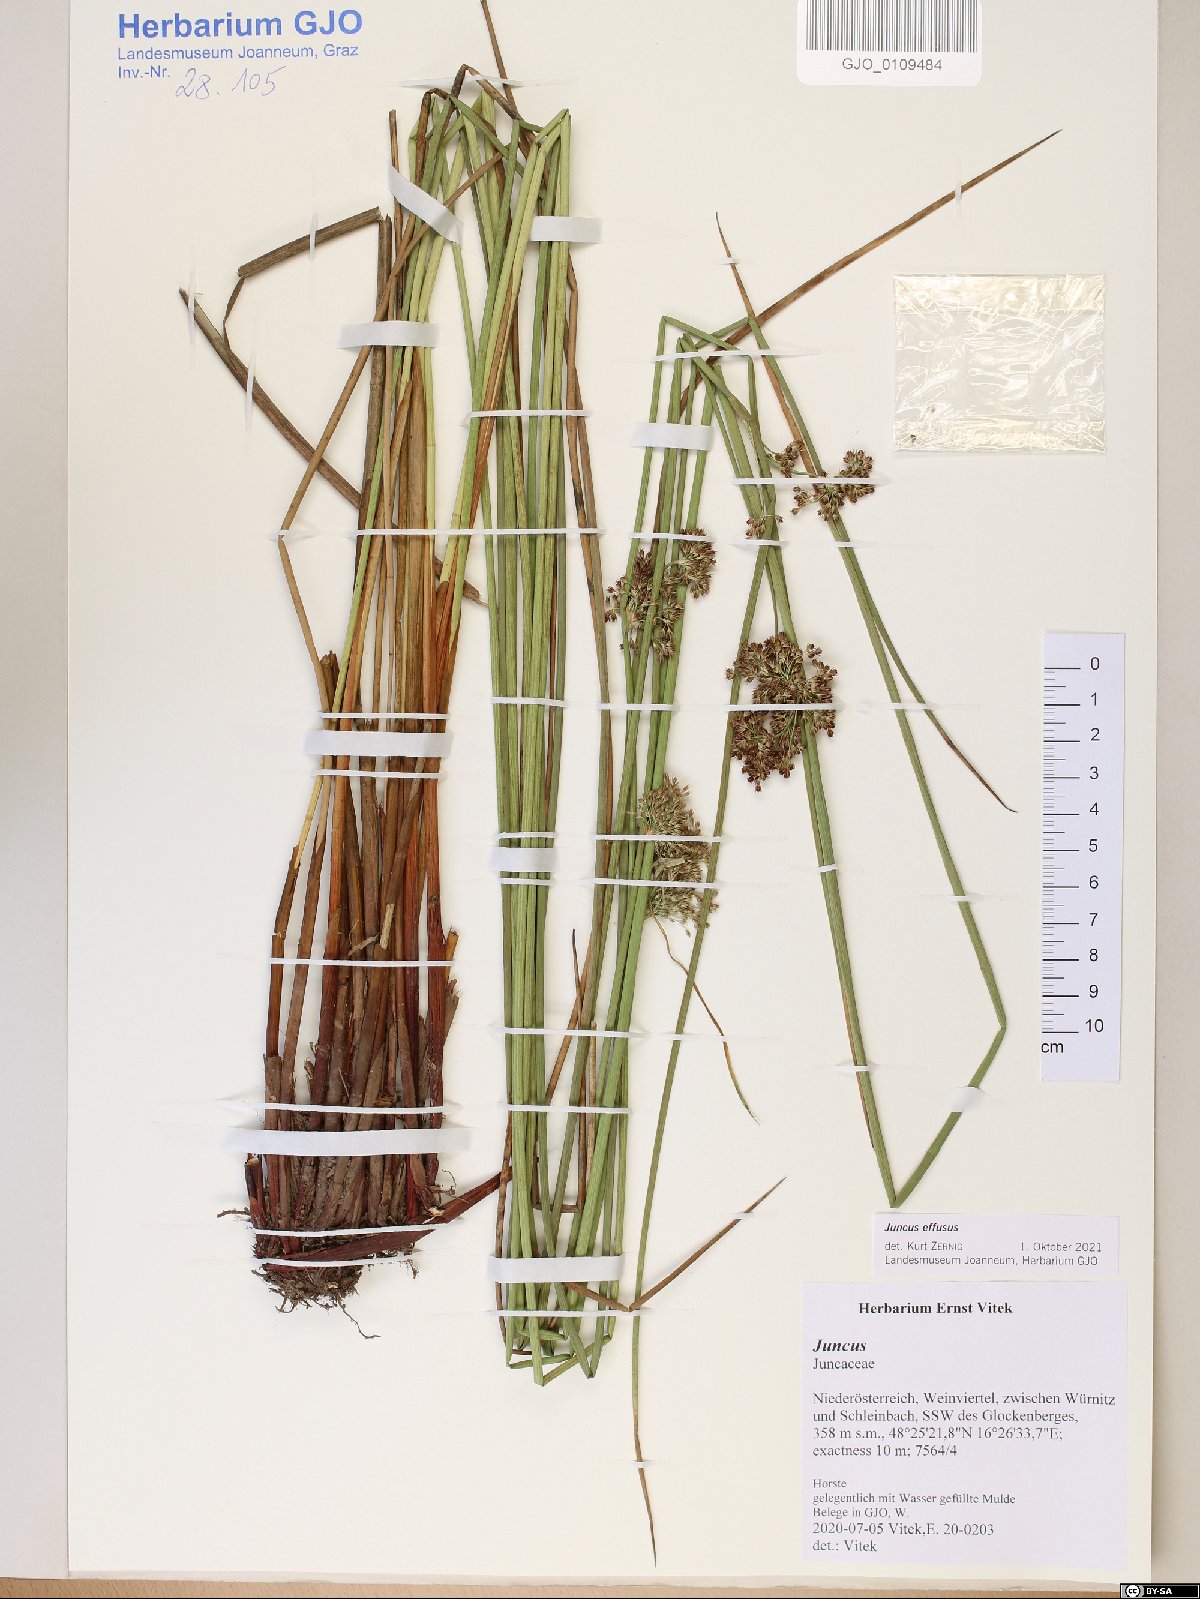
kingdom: Plantae
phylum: Tracheophyta
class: Liliopsida
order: Poales
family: Juncaceae
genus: Juncus
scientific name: Juncus effusus
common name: Soft rush
